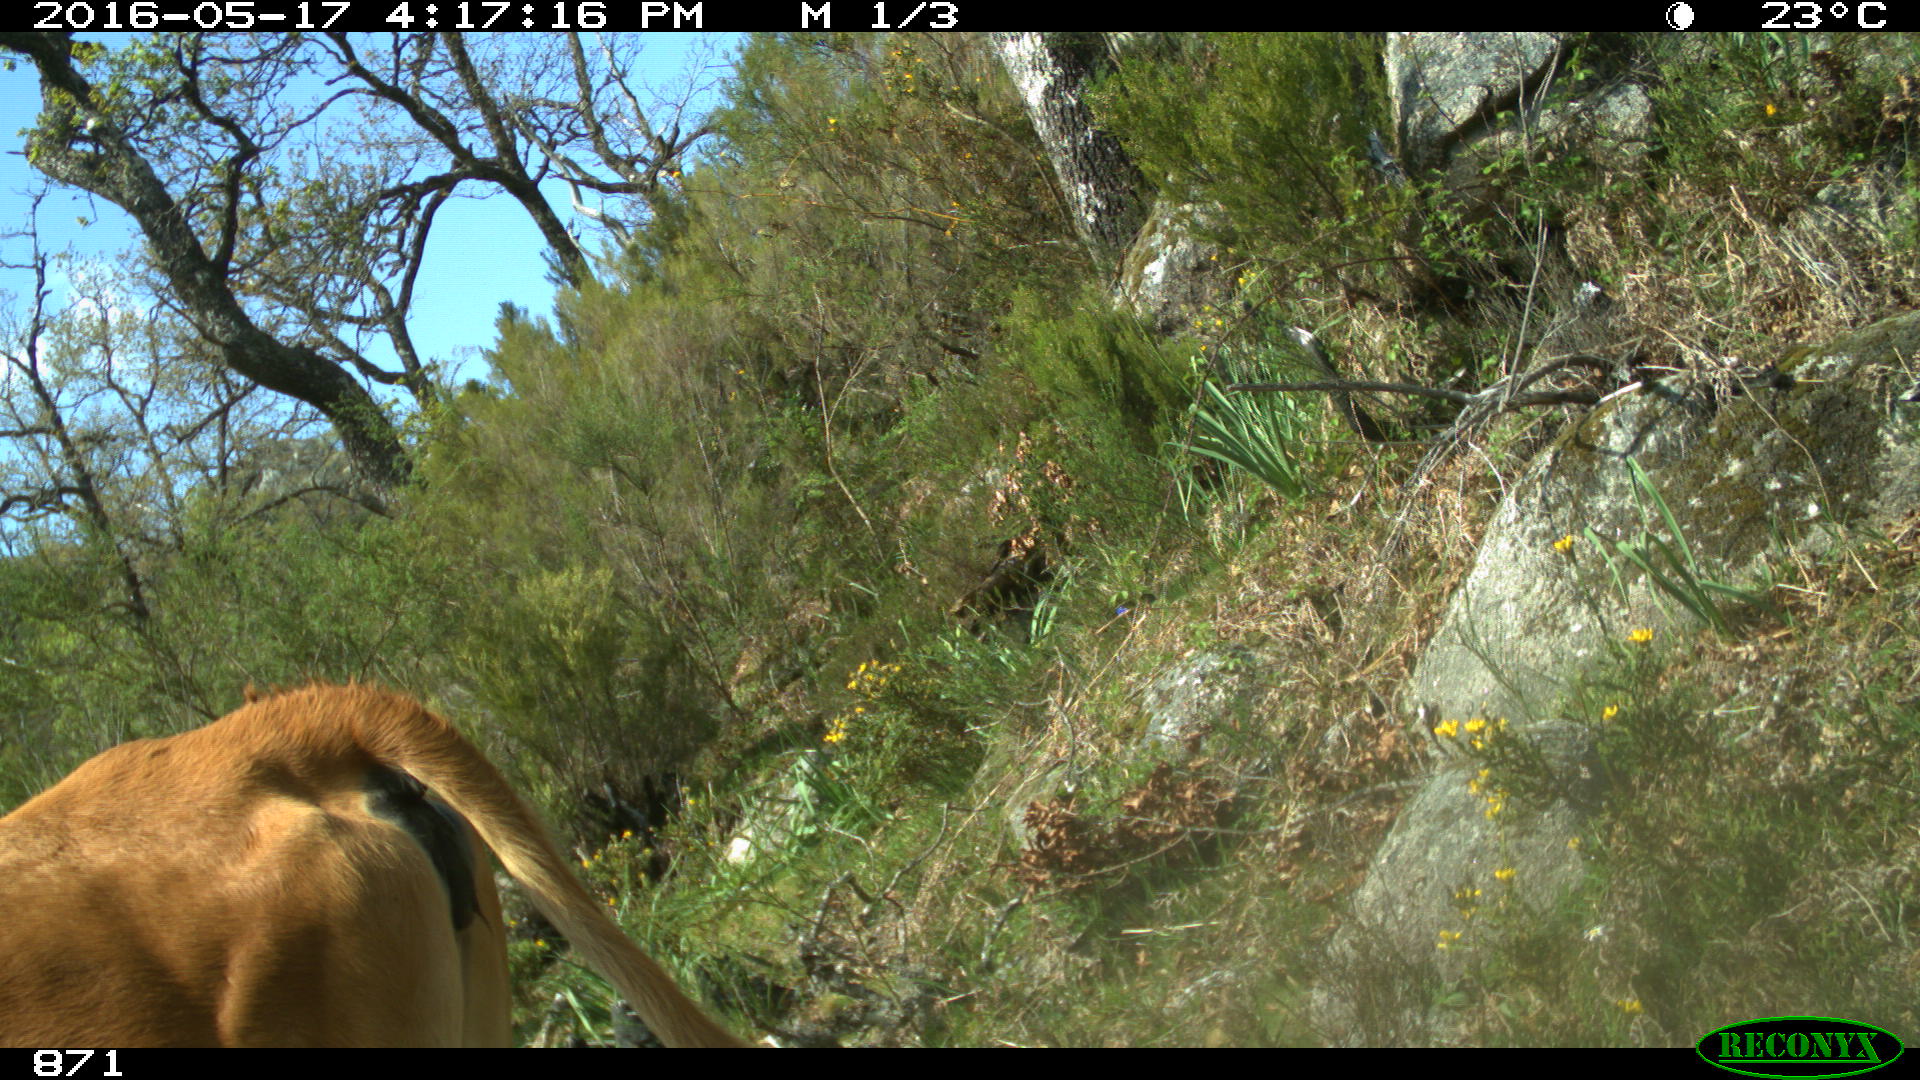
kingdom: Animalia
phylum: Chordata
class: Mammalia
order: Artiodactyla
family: Bovidae
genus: Bos
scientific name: Bos taurus
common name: Domesticated cattle
